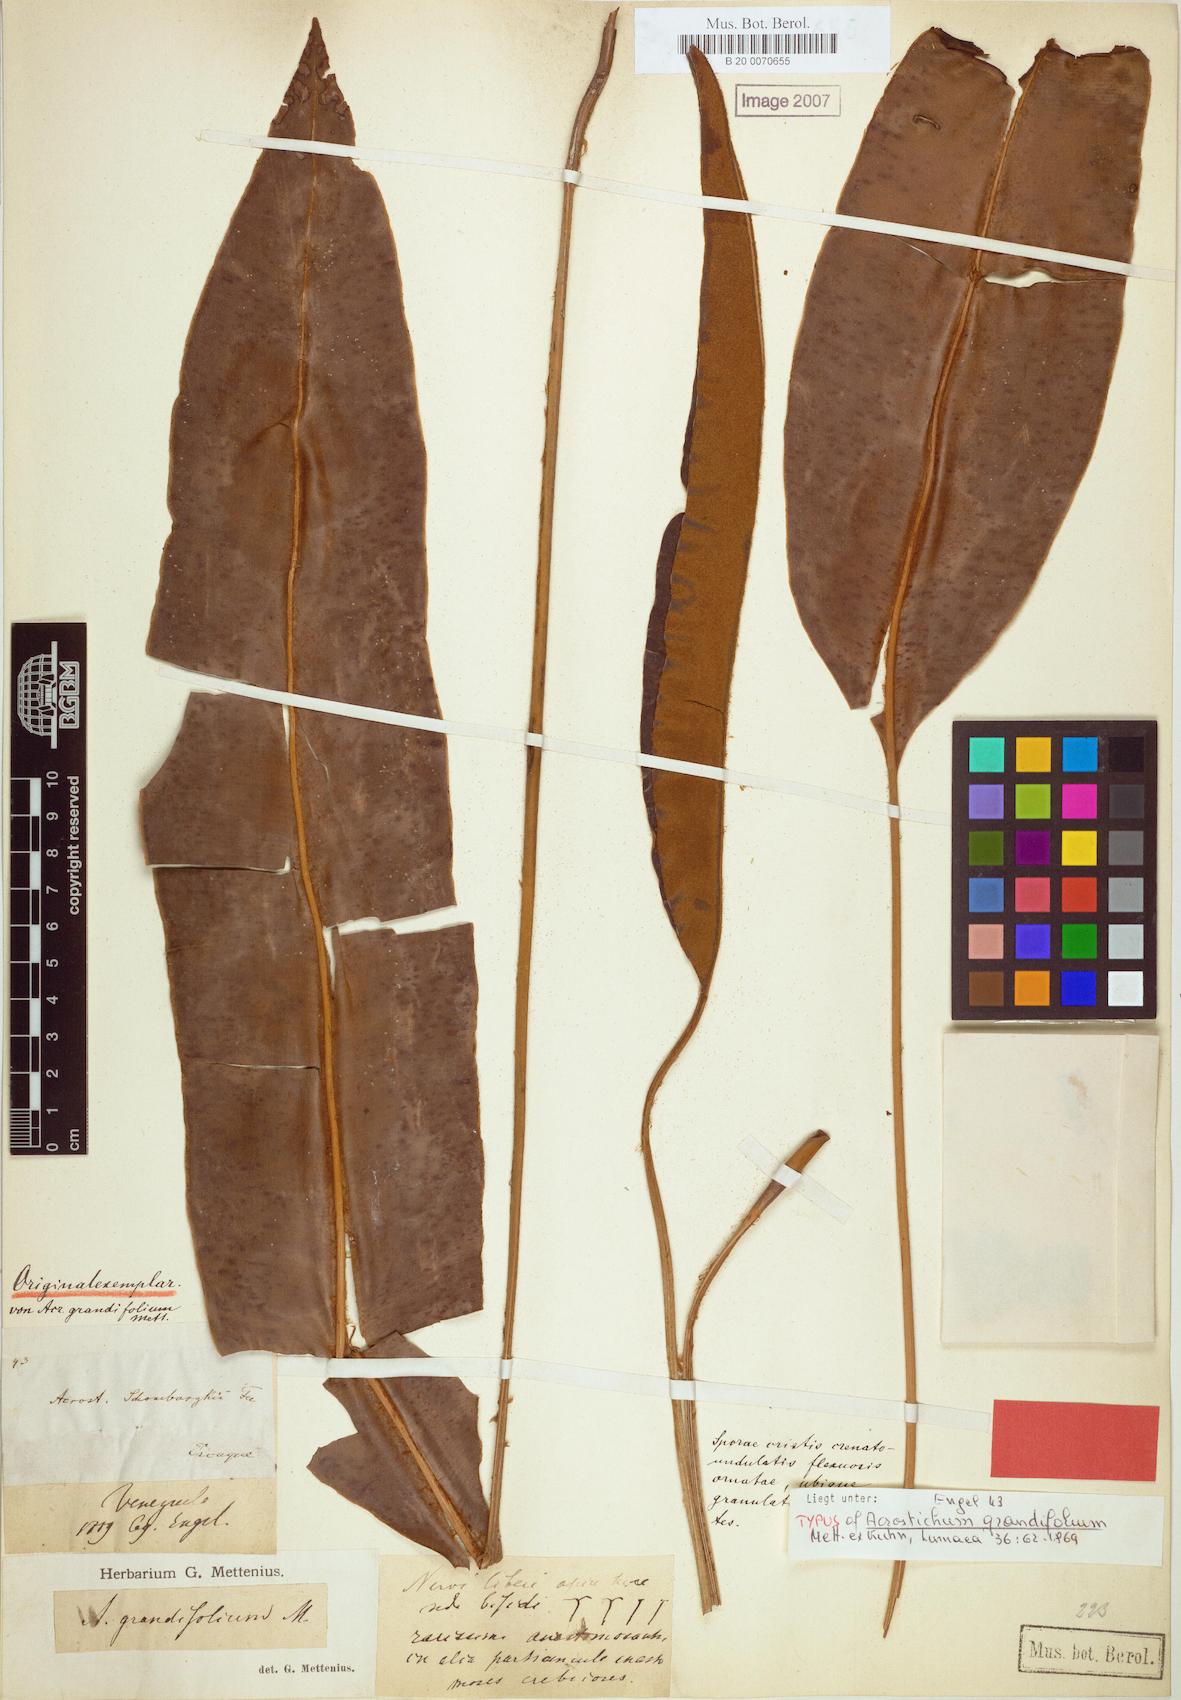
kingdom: Plantae
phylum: Tracheophyta
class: Polypodiopsida
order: Polypodiales
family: Pteridaceae
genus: Acrostichum
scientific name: Acrostichum grandifolium
